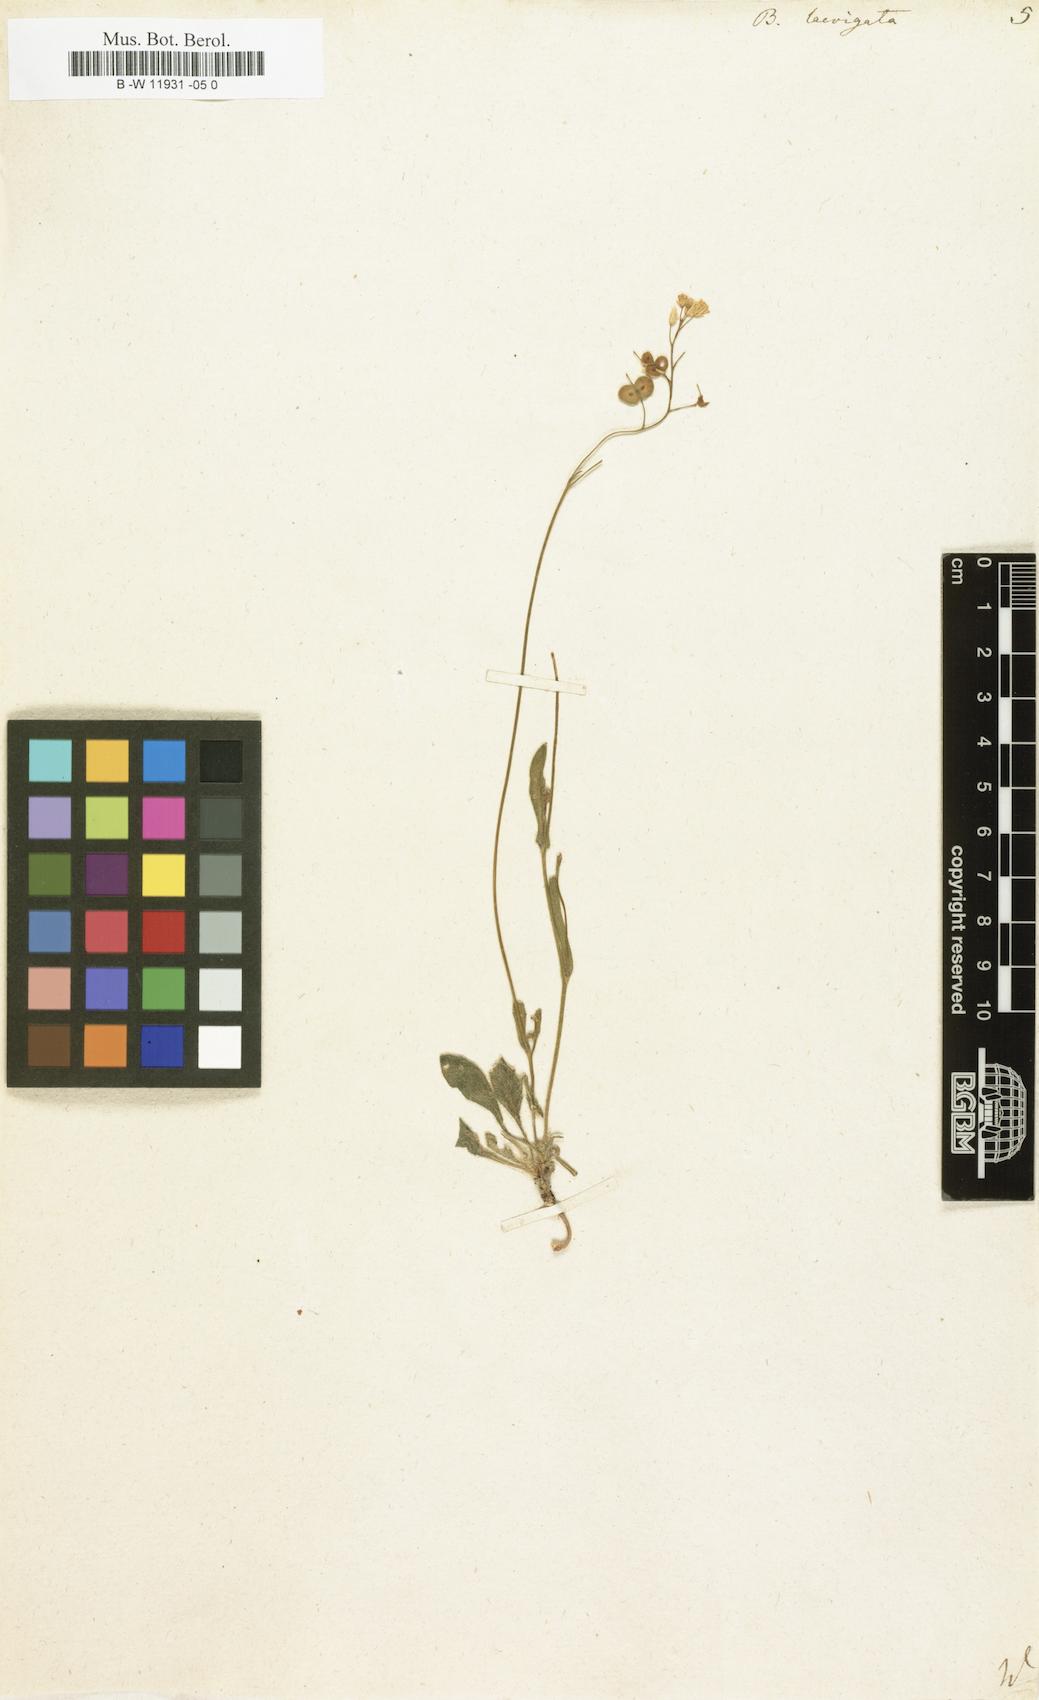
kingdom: Plantae
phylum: Tracheophyta
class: Magnoliopsida
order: Brassicales
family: Brassicaceae
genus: Biscutella
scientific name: Biscutella laevigata
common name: Buckler mustard
